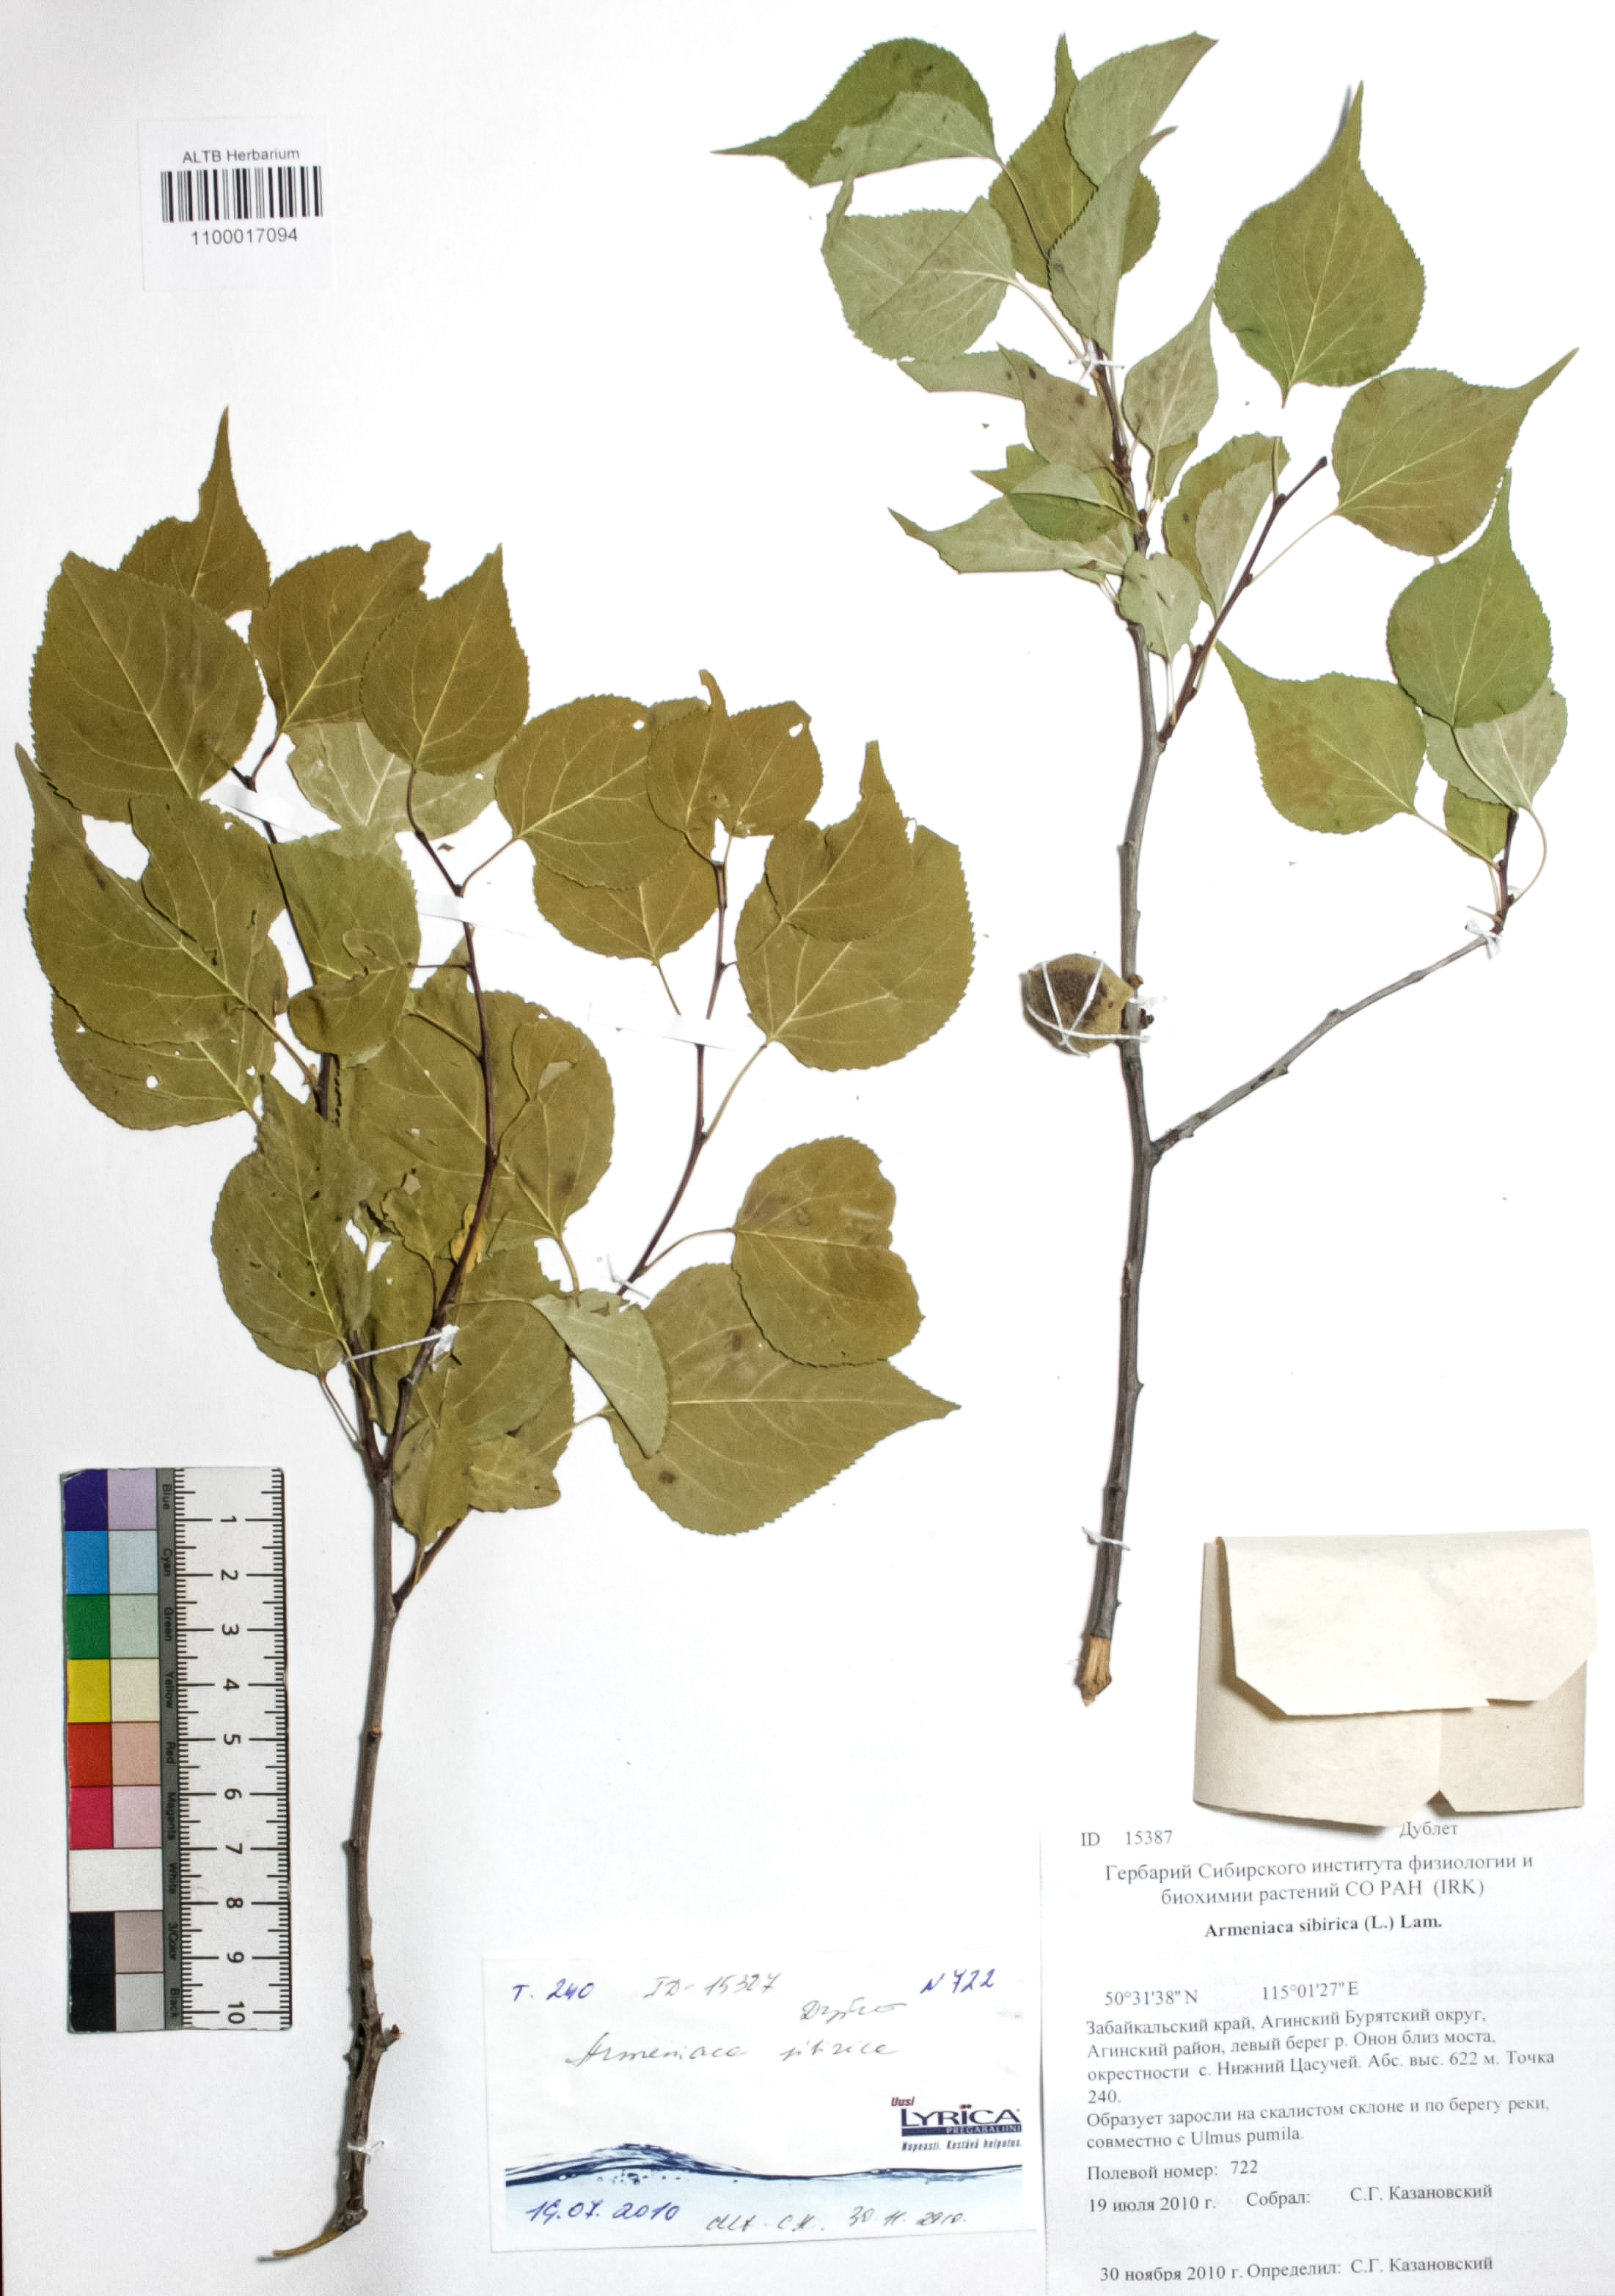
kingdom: Plantae
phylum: Tracheophyta
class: Magnoliopsida
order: Rosales
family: Rosaceae
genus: Prunus
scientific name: Prunus sibirica
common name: Siberian apricot
